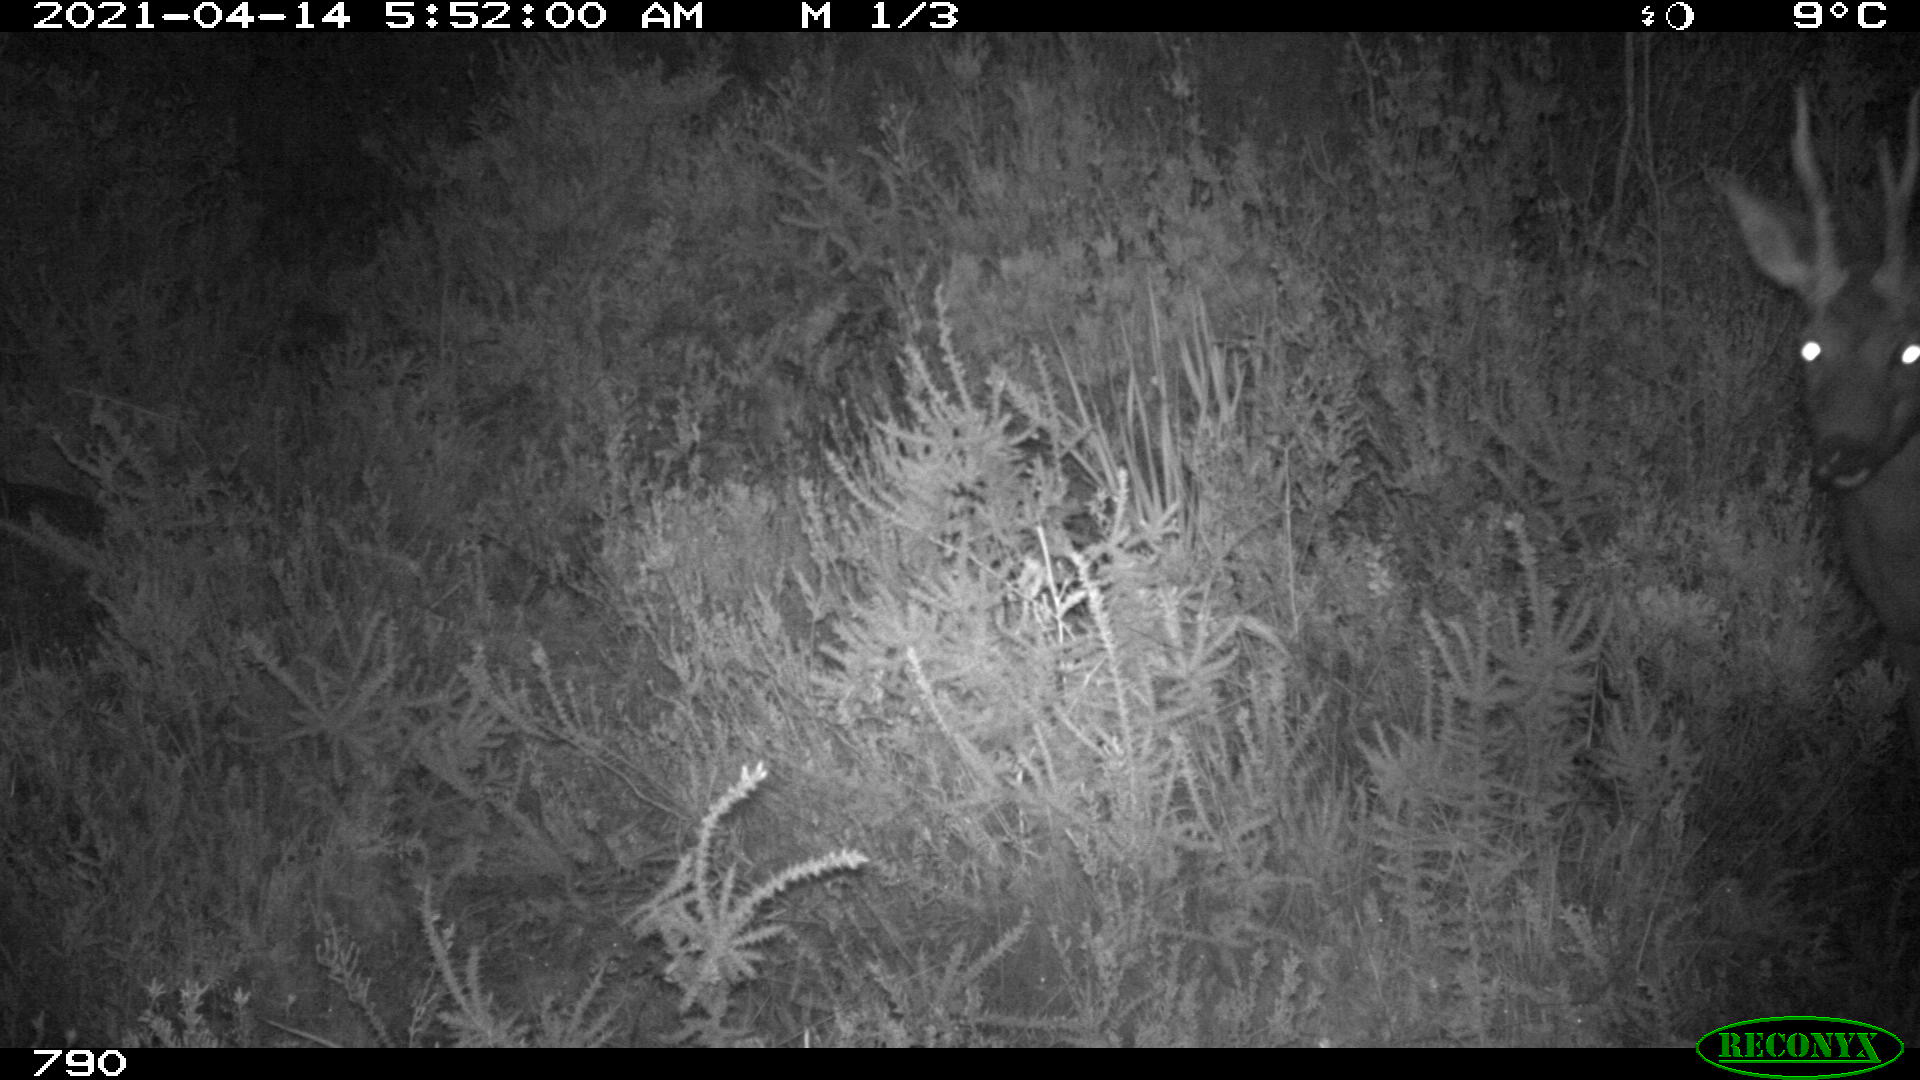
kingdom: Animalia
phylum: Chordata
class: Mammalia
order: Artiodactyla
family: Cervidae
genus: Capreolus
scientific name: Capreolus capreolus
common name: Western roe deer
